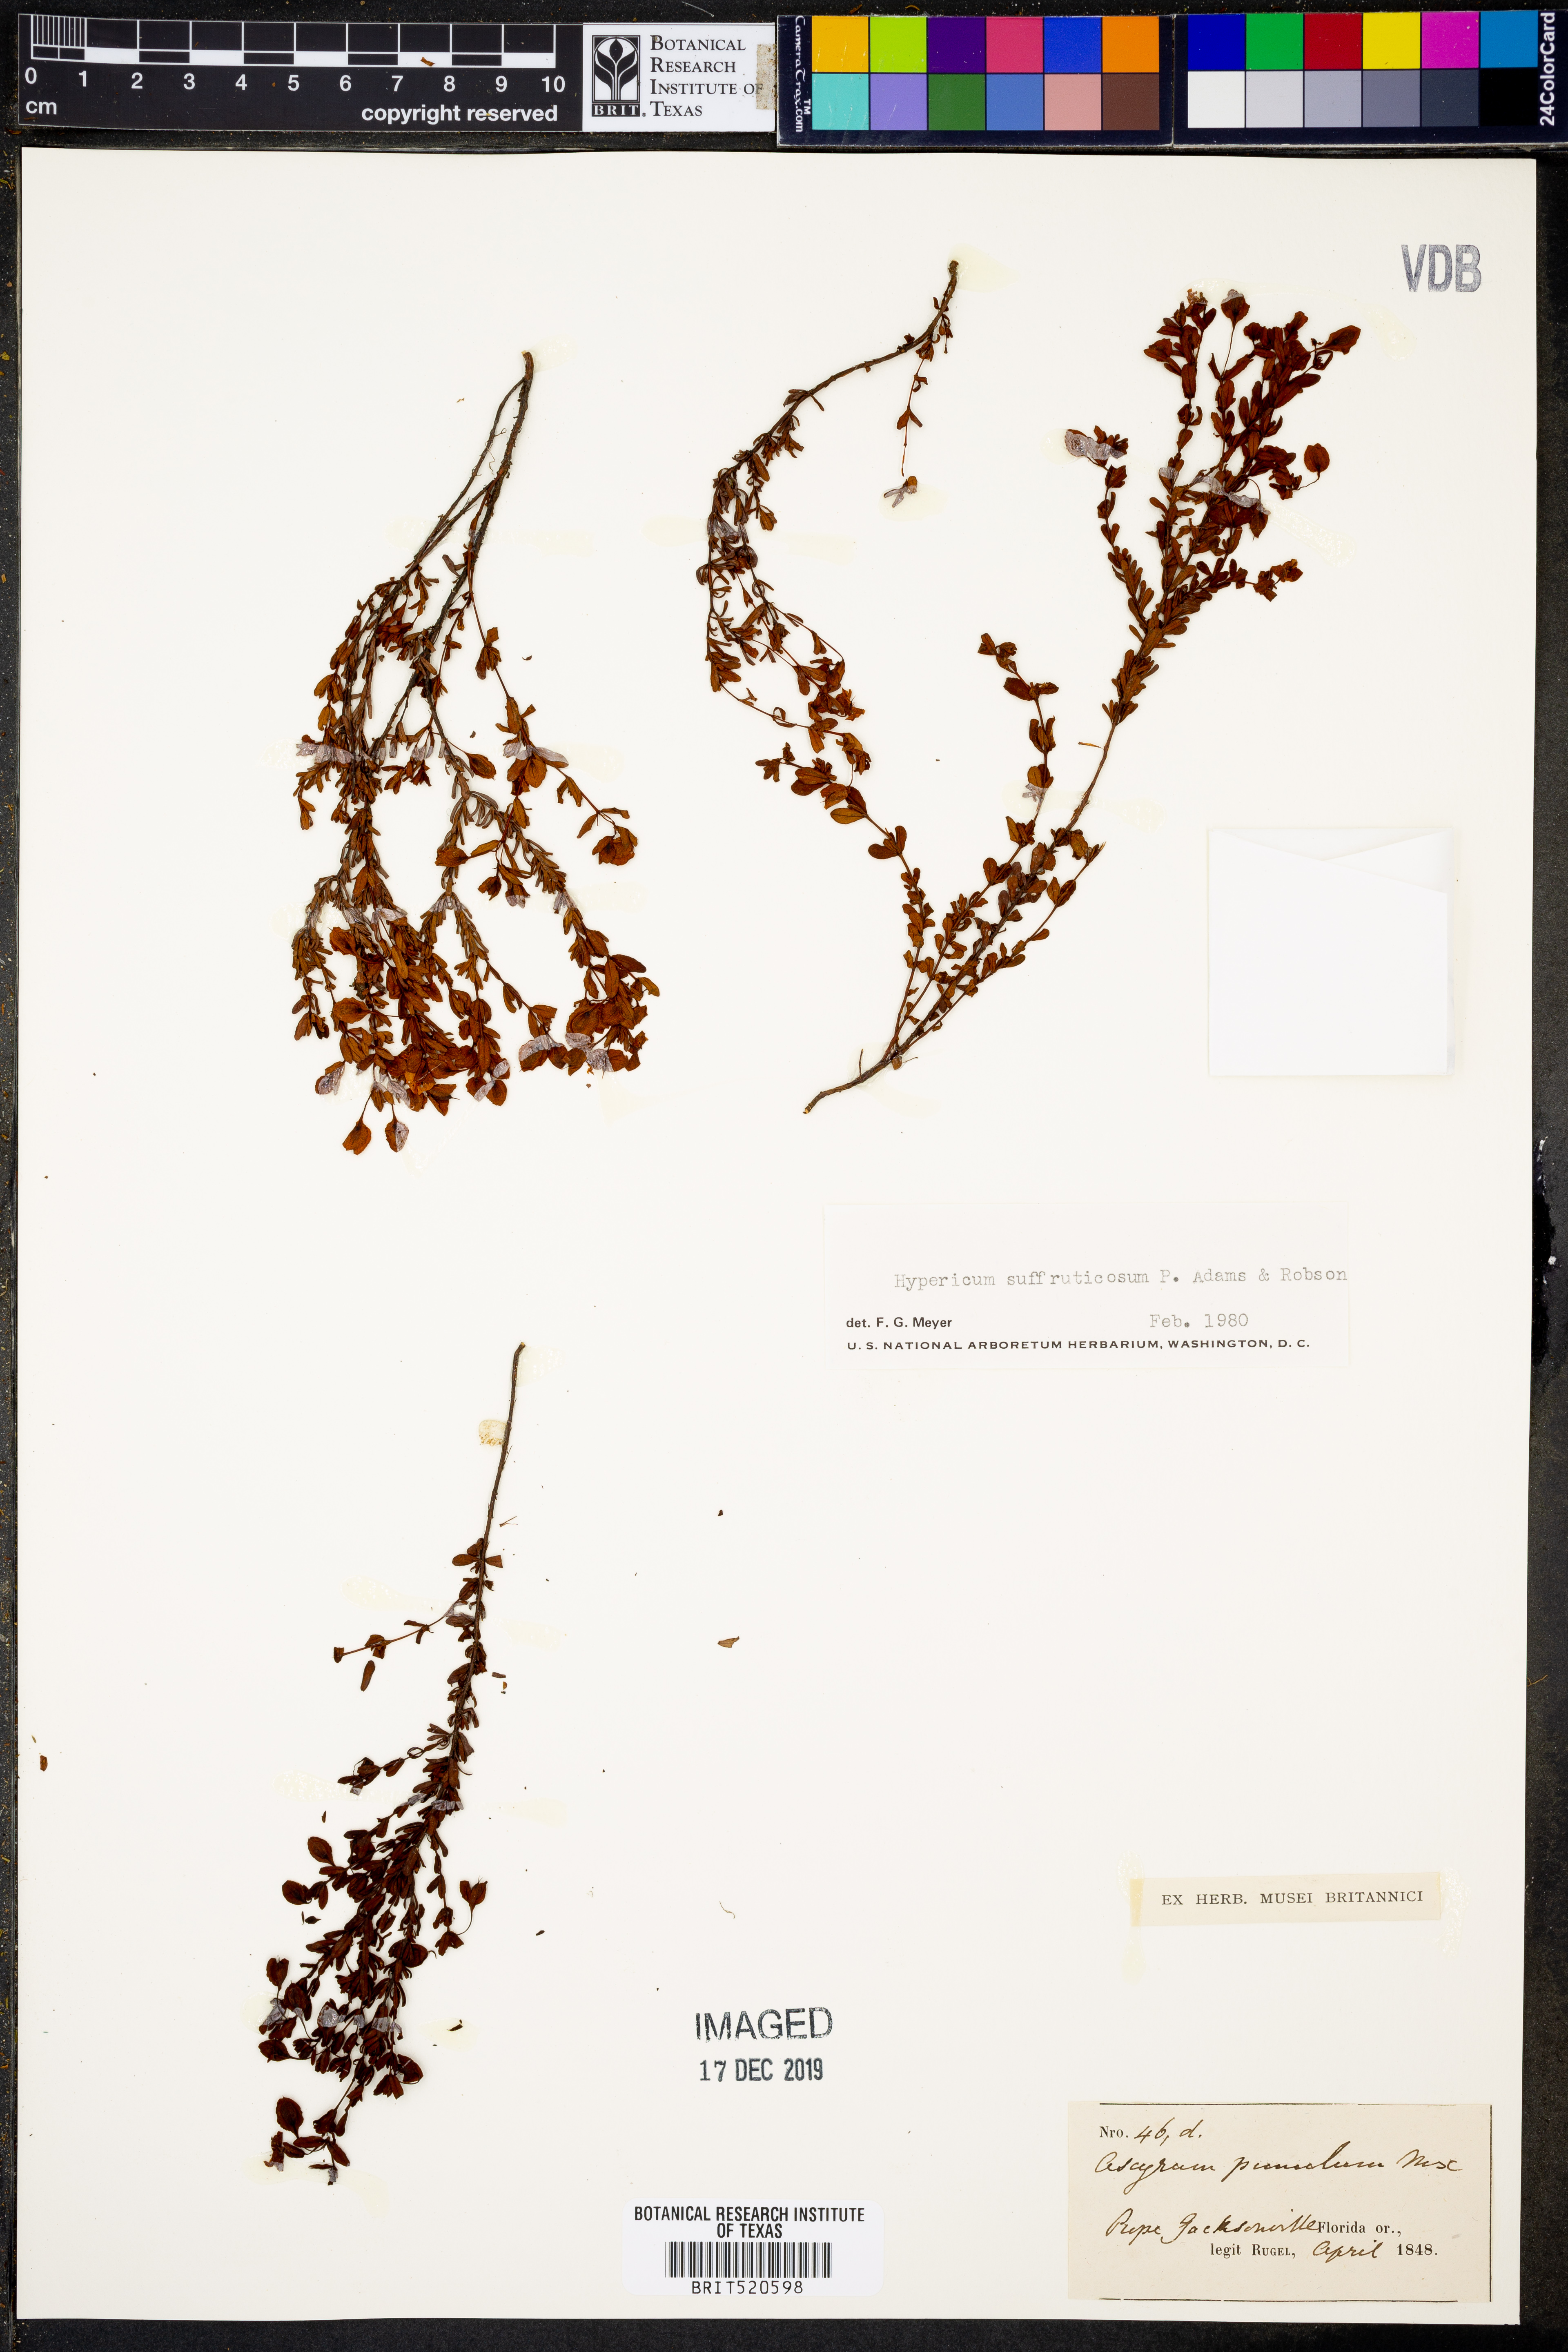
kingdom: Plantae
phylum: Tracheophyta
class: Magnoliopsida
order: Malpighiales
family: Hypericaceae
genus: Hypericum
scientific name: Hypericum suffruticosum
